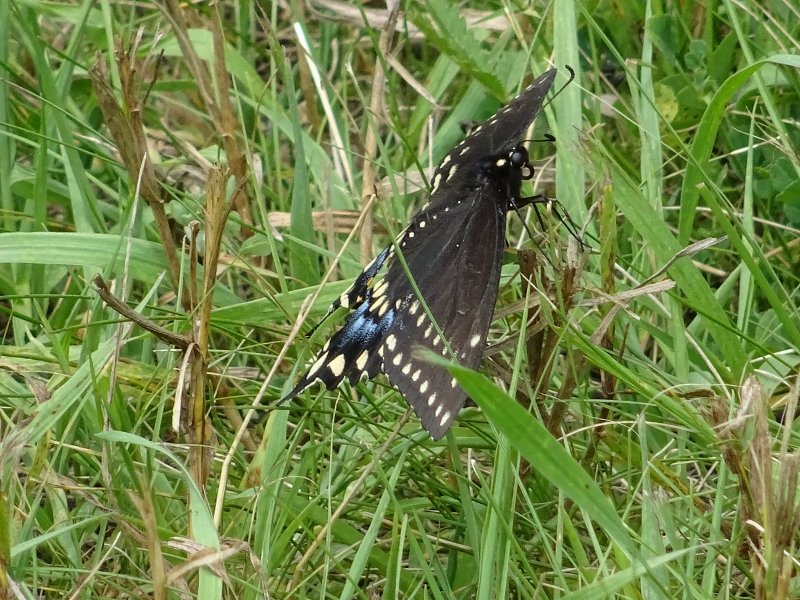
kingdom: Animalia
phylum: Arthropoda
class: Insecta
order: Lepidoptera
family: Papilionidae
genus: Papilio
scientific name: Papilio polyxenes
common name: Black Swallowtail
